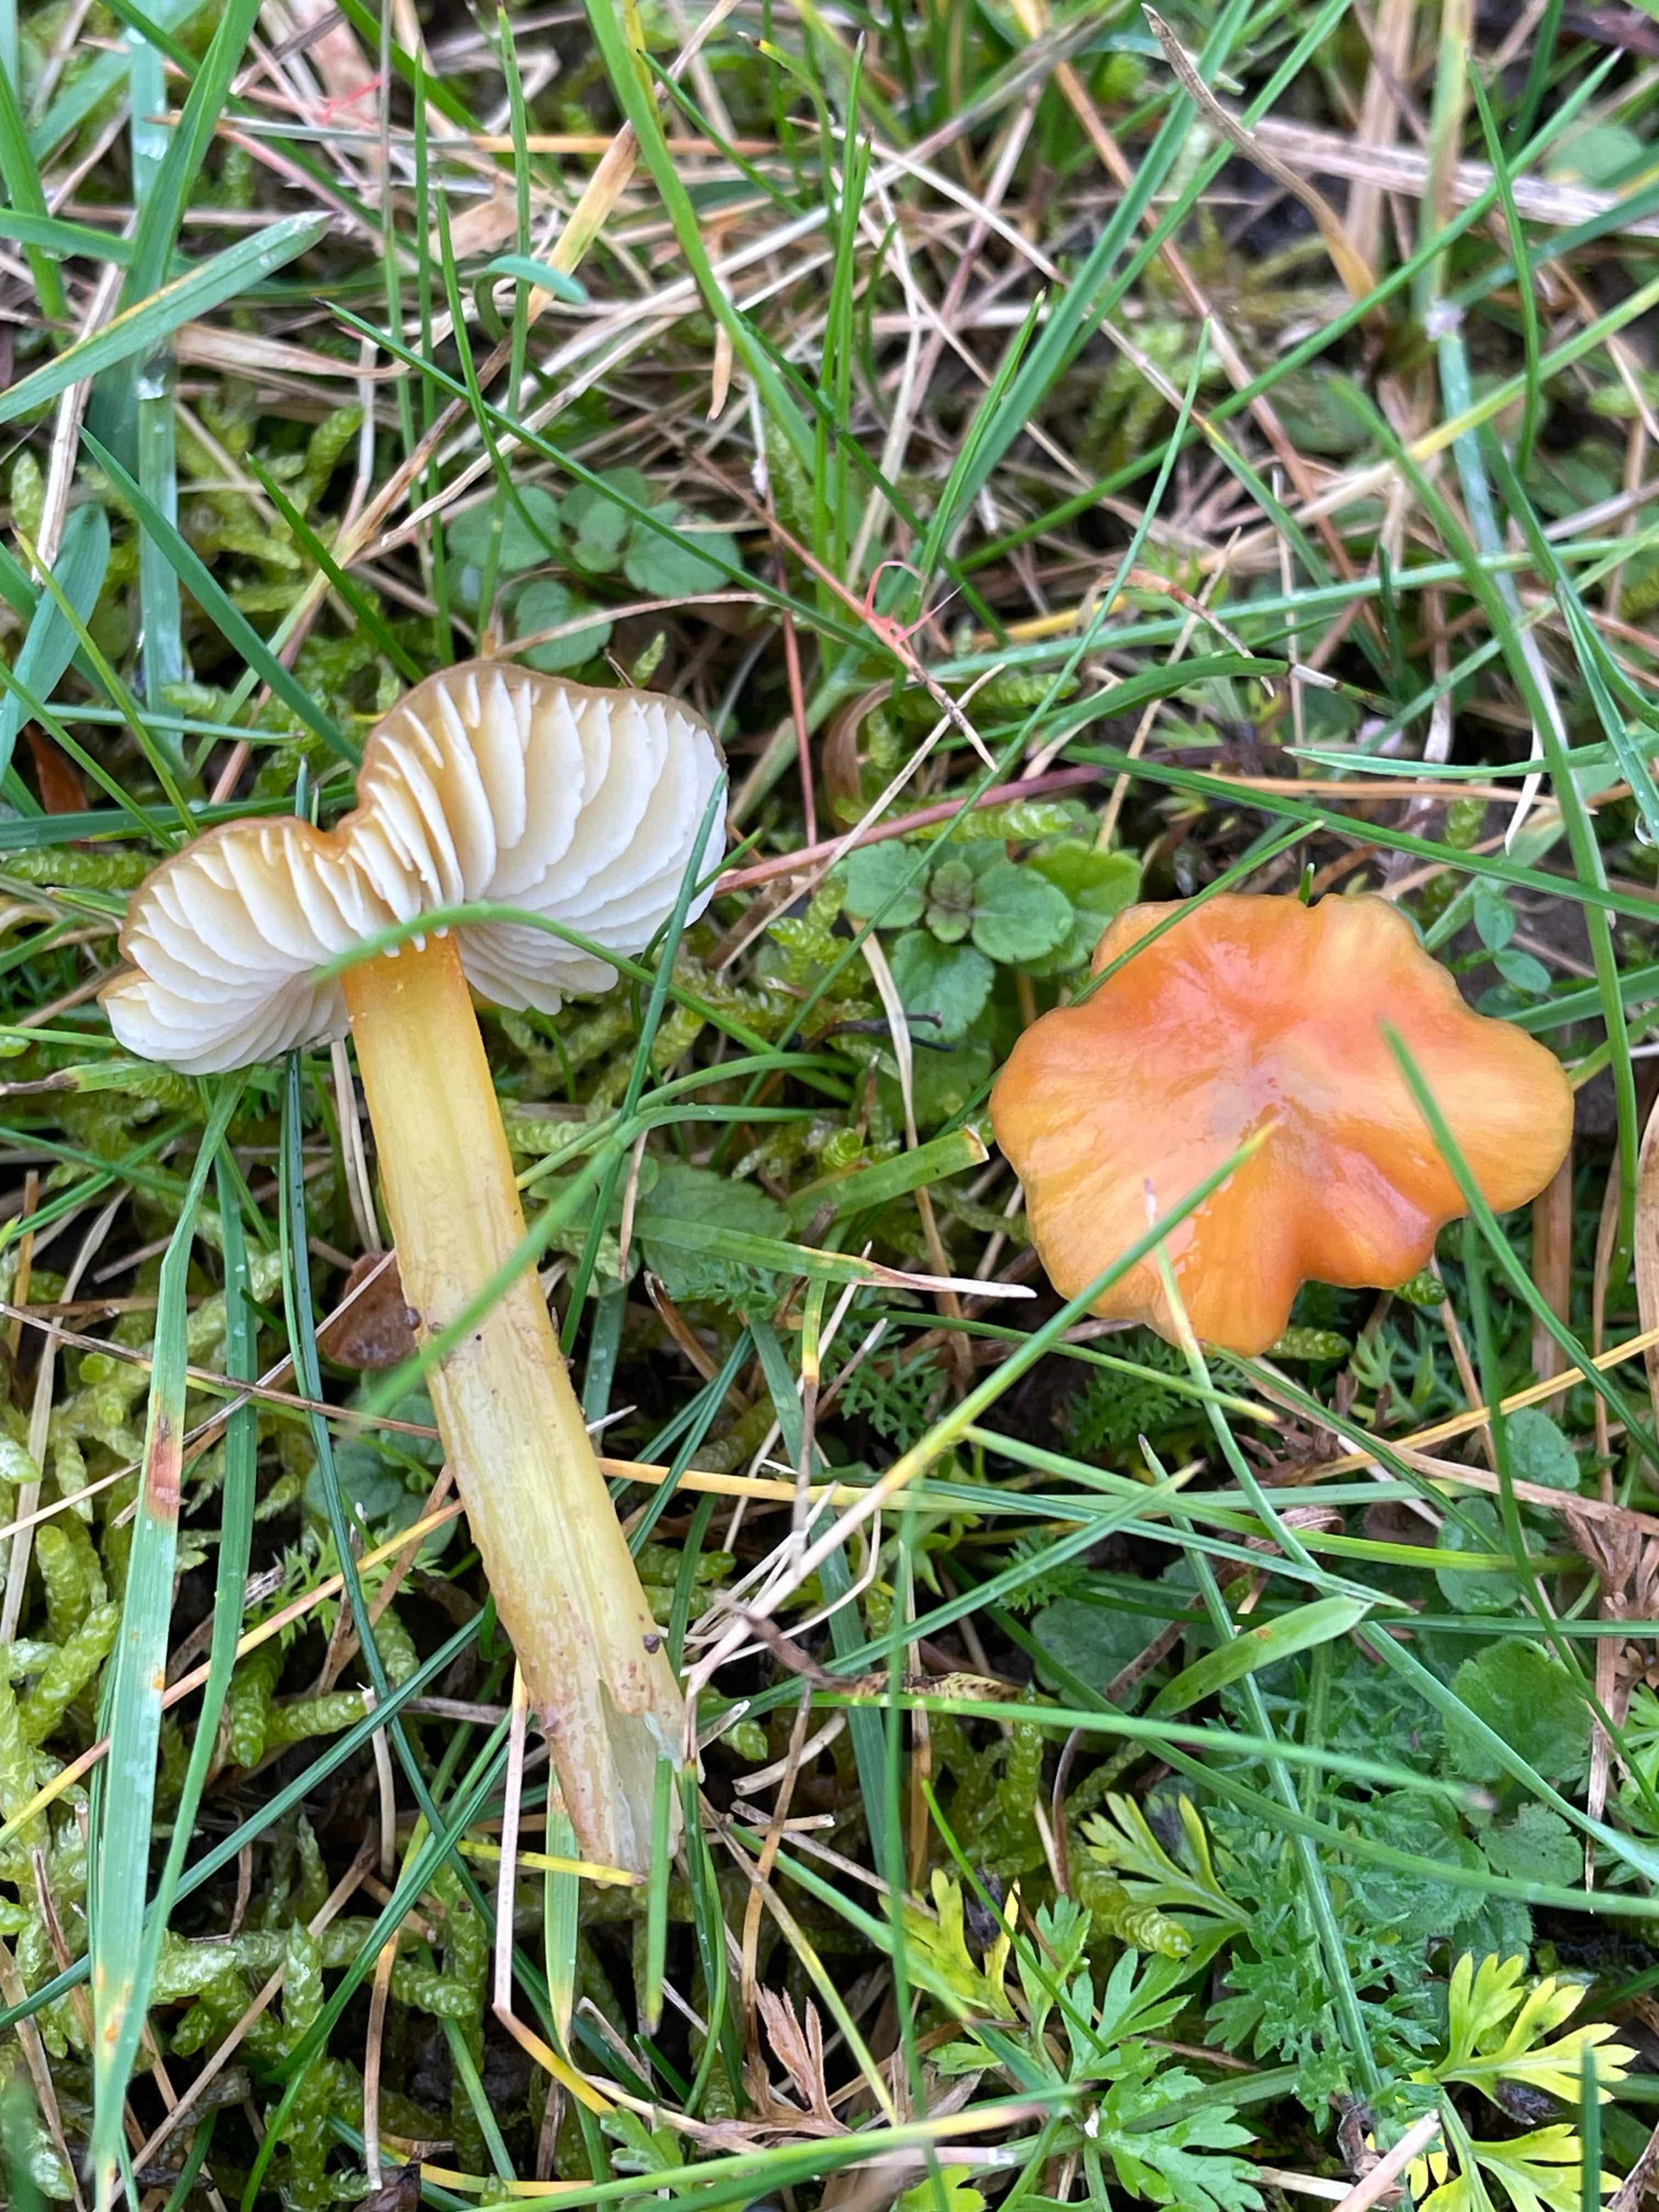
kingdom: Fungi
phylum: Basidiomycota
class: Agaricomycetes
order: Agaricales
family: Hygrophoraceae
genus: Hygrocybe
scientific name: Hygrocybe conica
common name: kegle-vokshat
